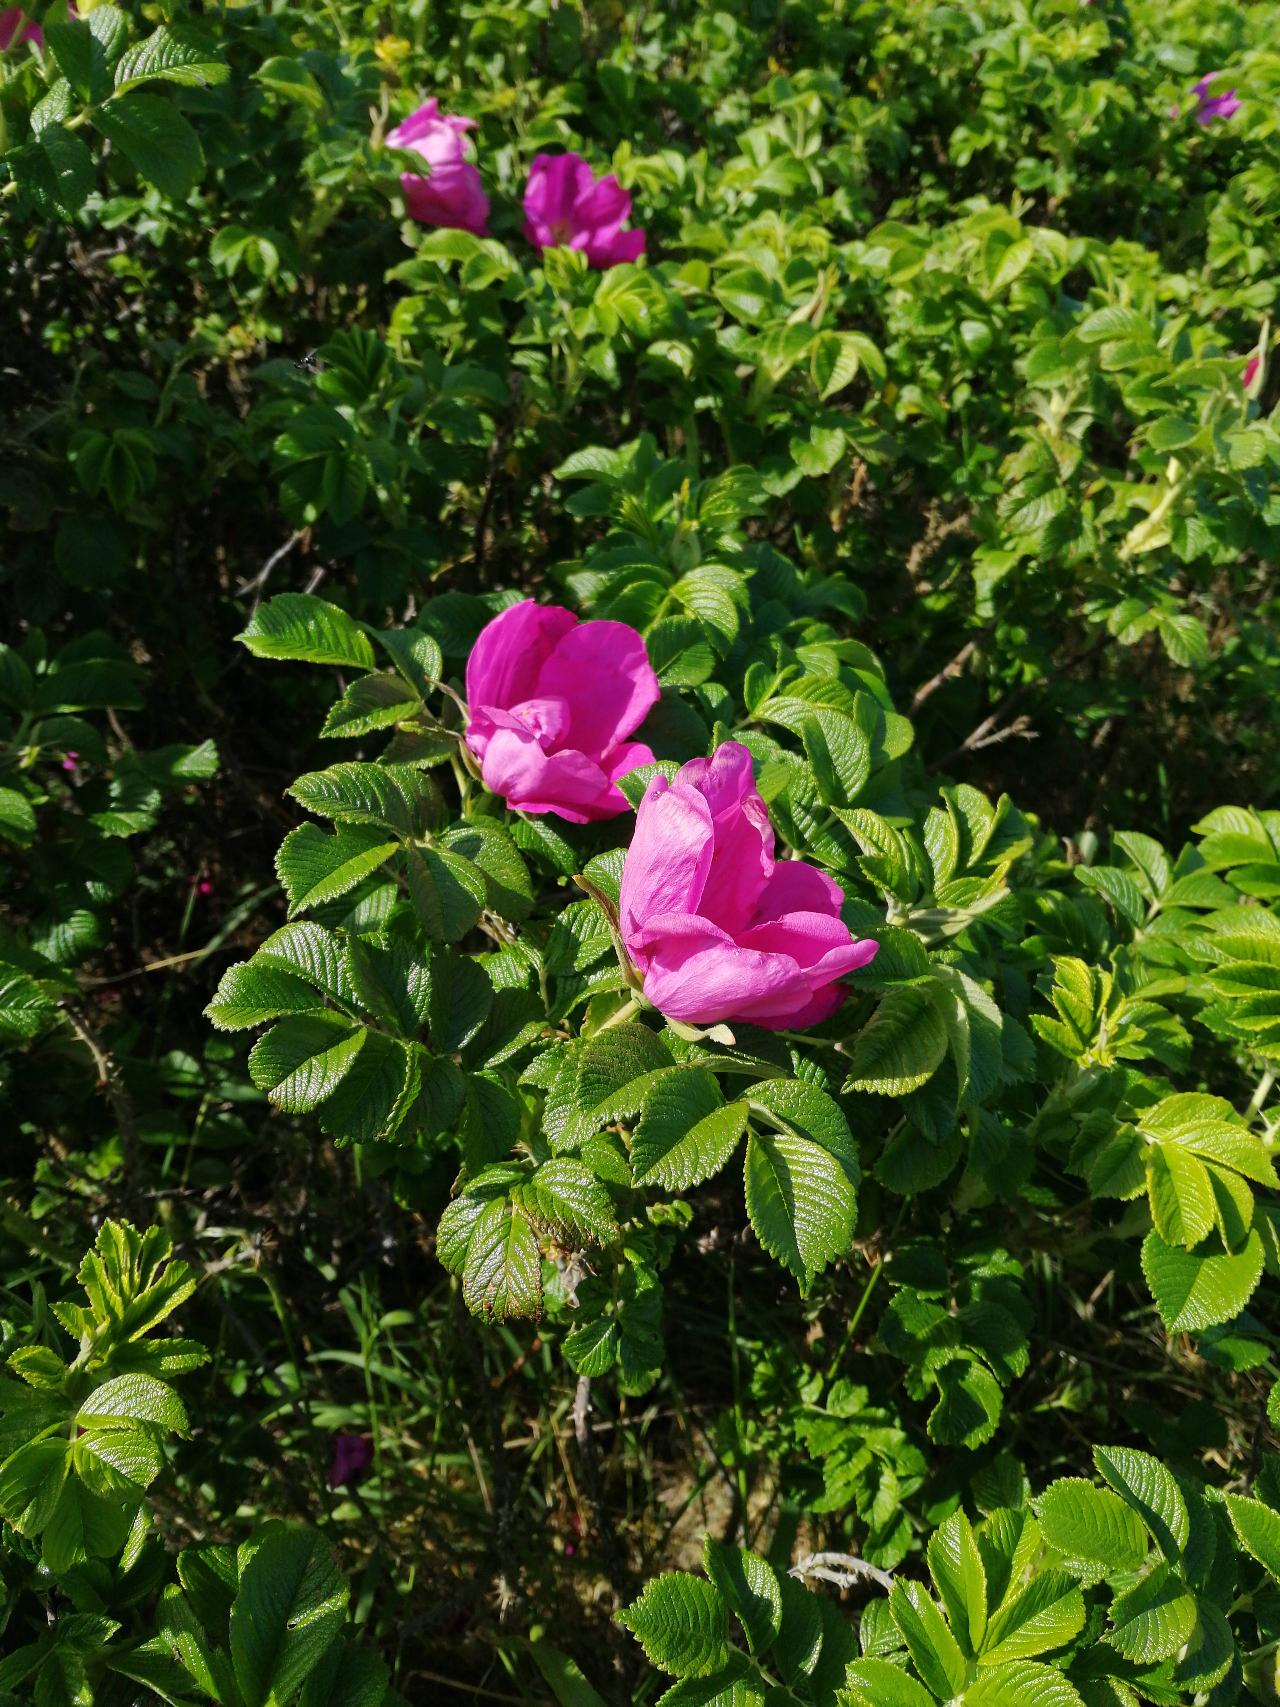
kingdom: Plantae
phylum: Tracheophyta
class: Magnoliopsida
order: Rosales
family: Rosaceae
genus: Rosa
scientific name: Rosa rugosa
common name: Rynket rose
